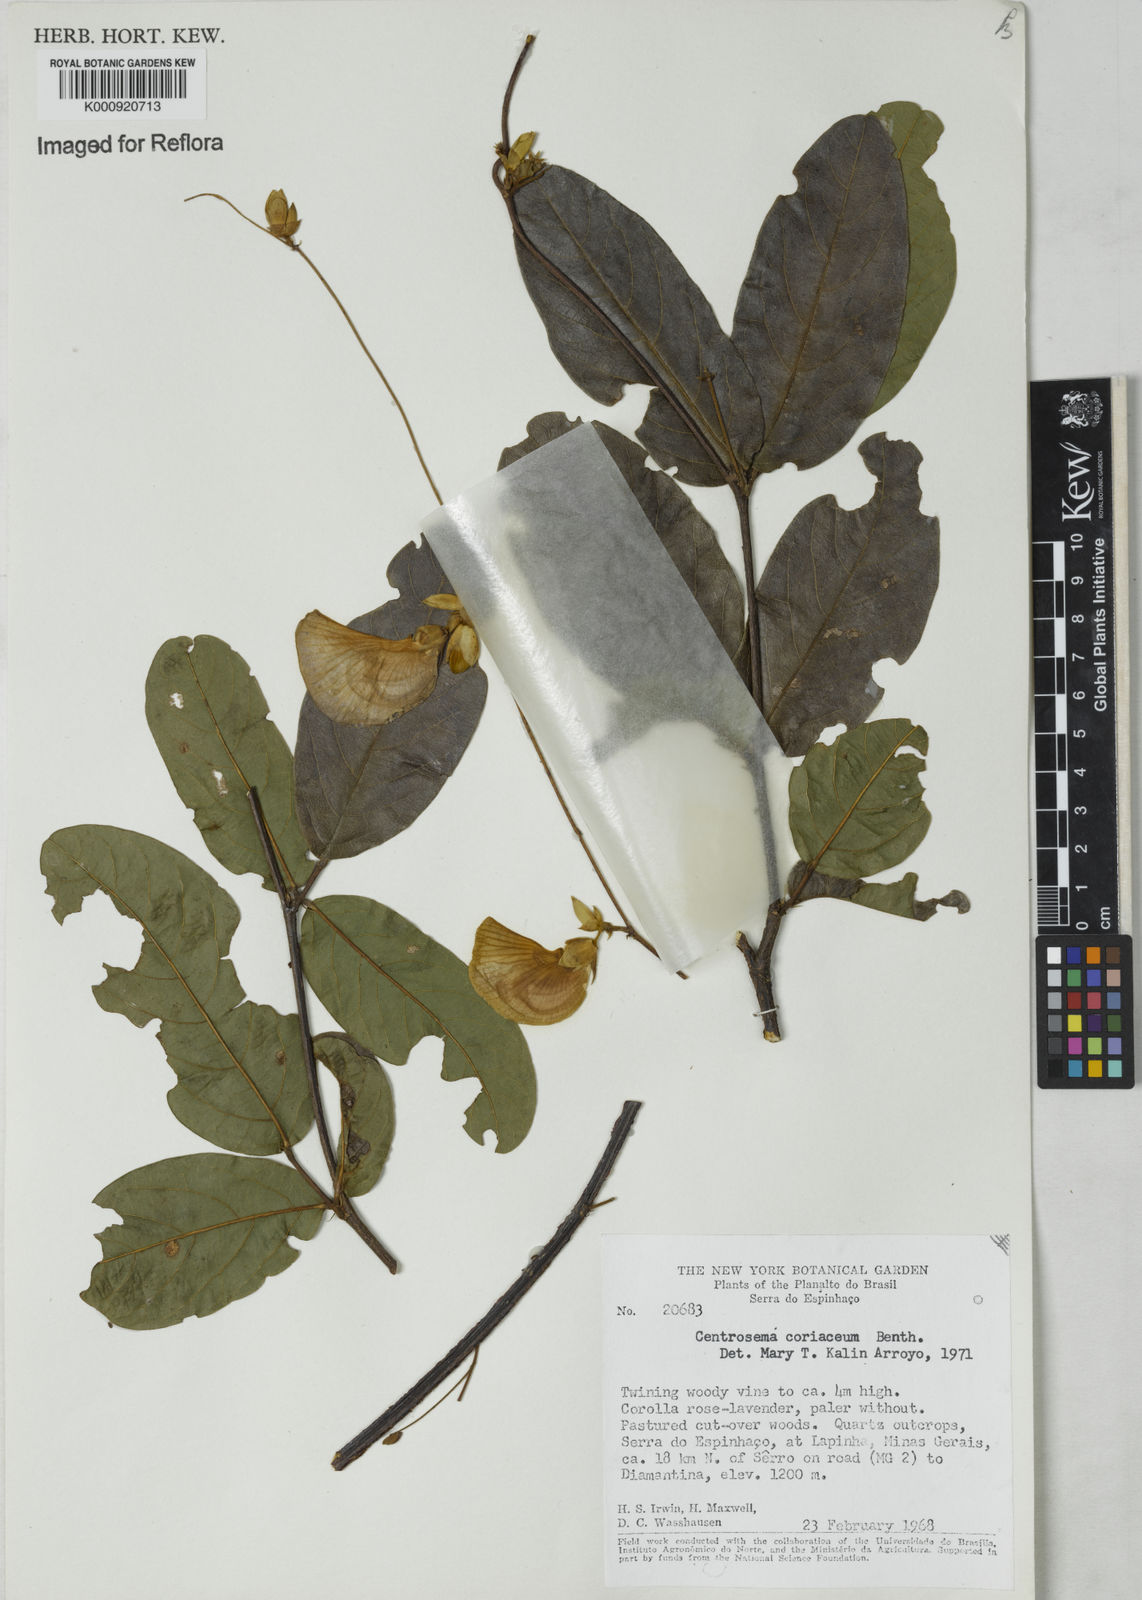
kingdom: Plantae
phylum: Tracheophyta
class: Magnoliopsida
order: Fabales
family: Fabaceae
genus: Centrosema
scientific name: Centrosema coriaceum
